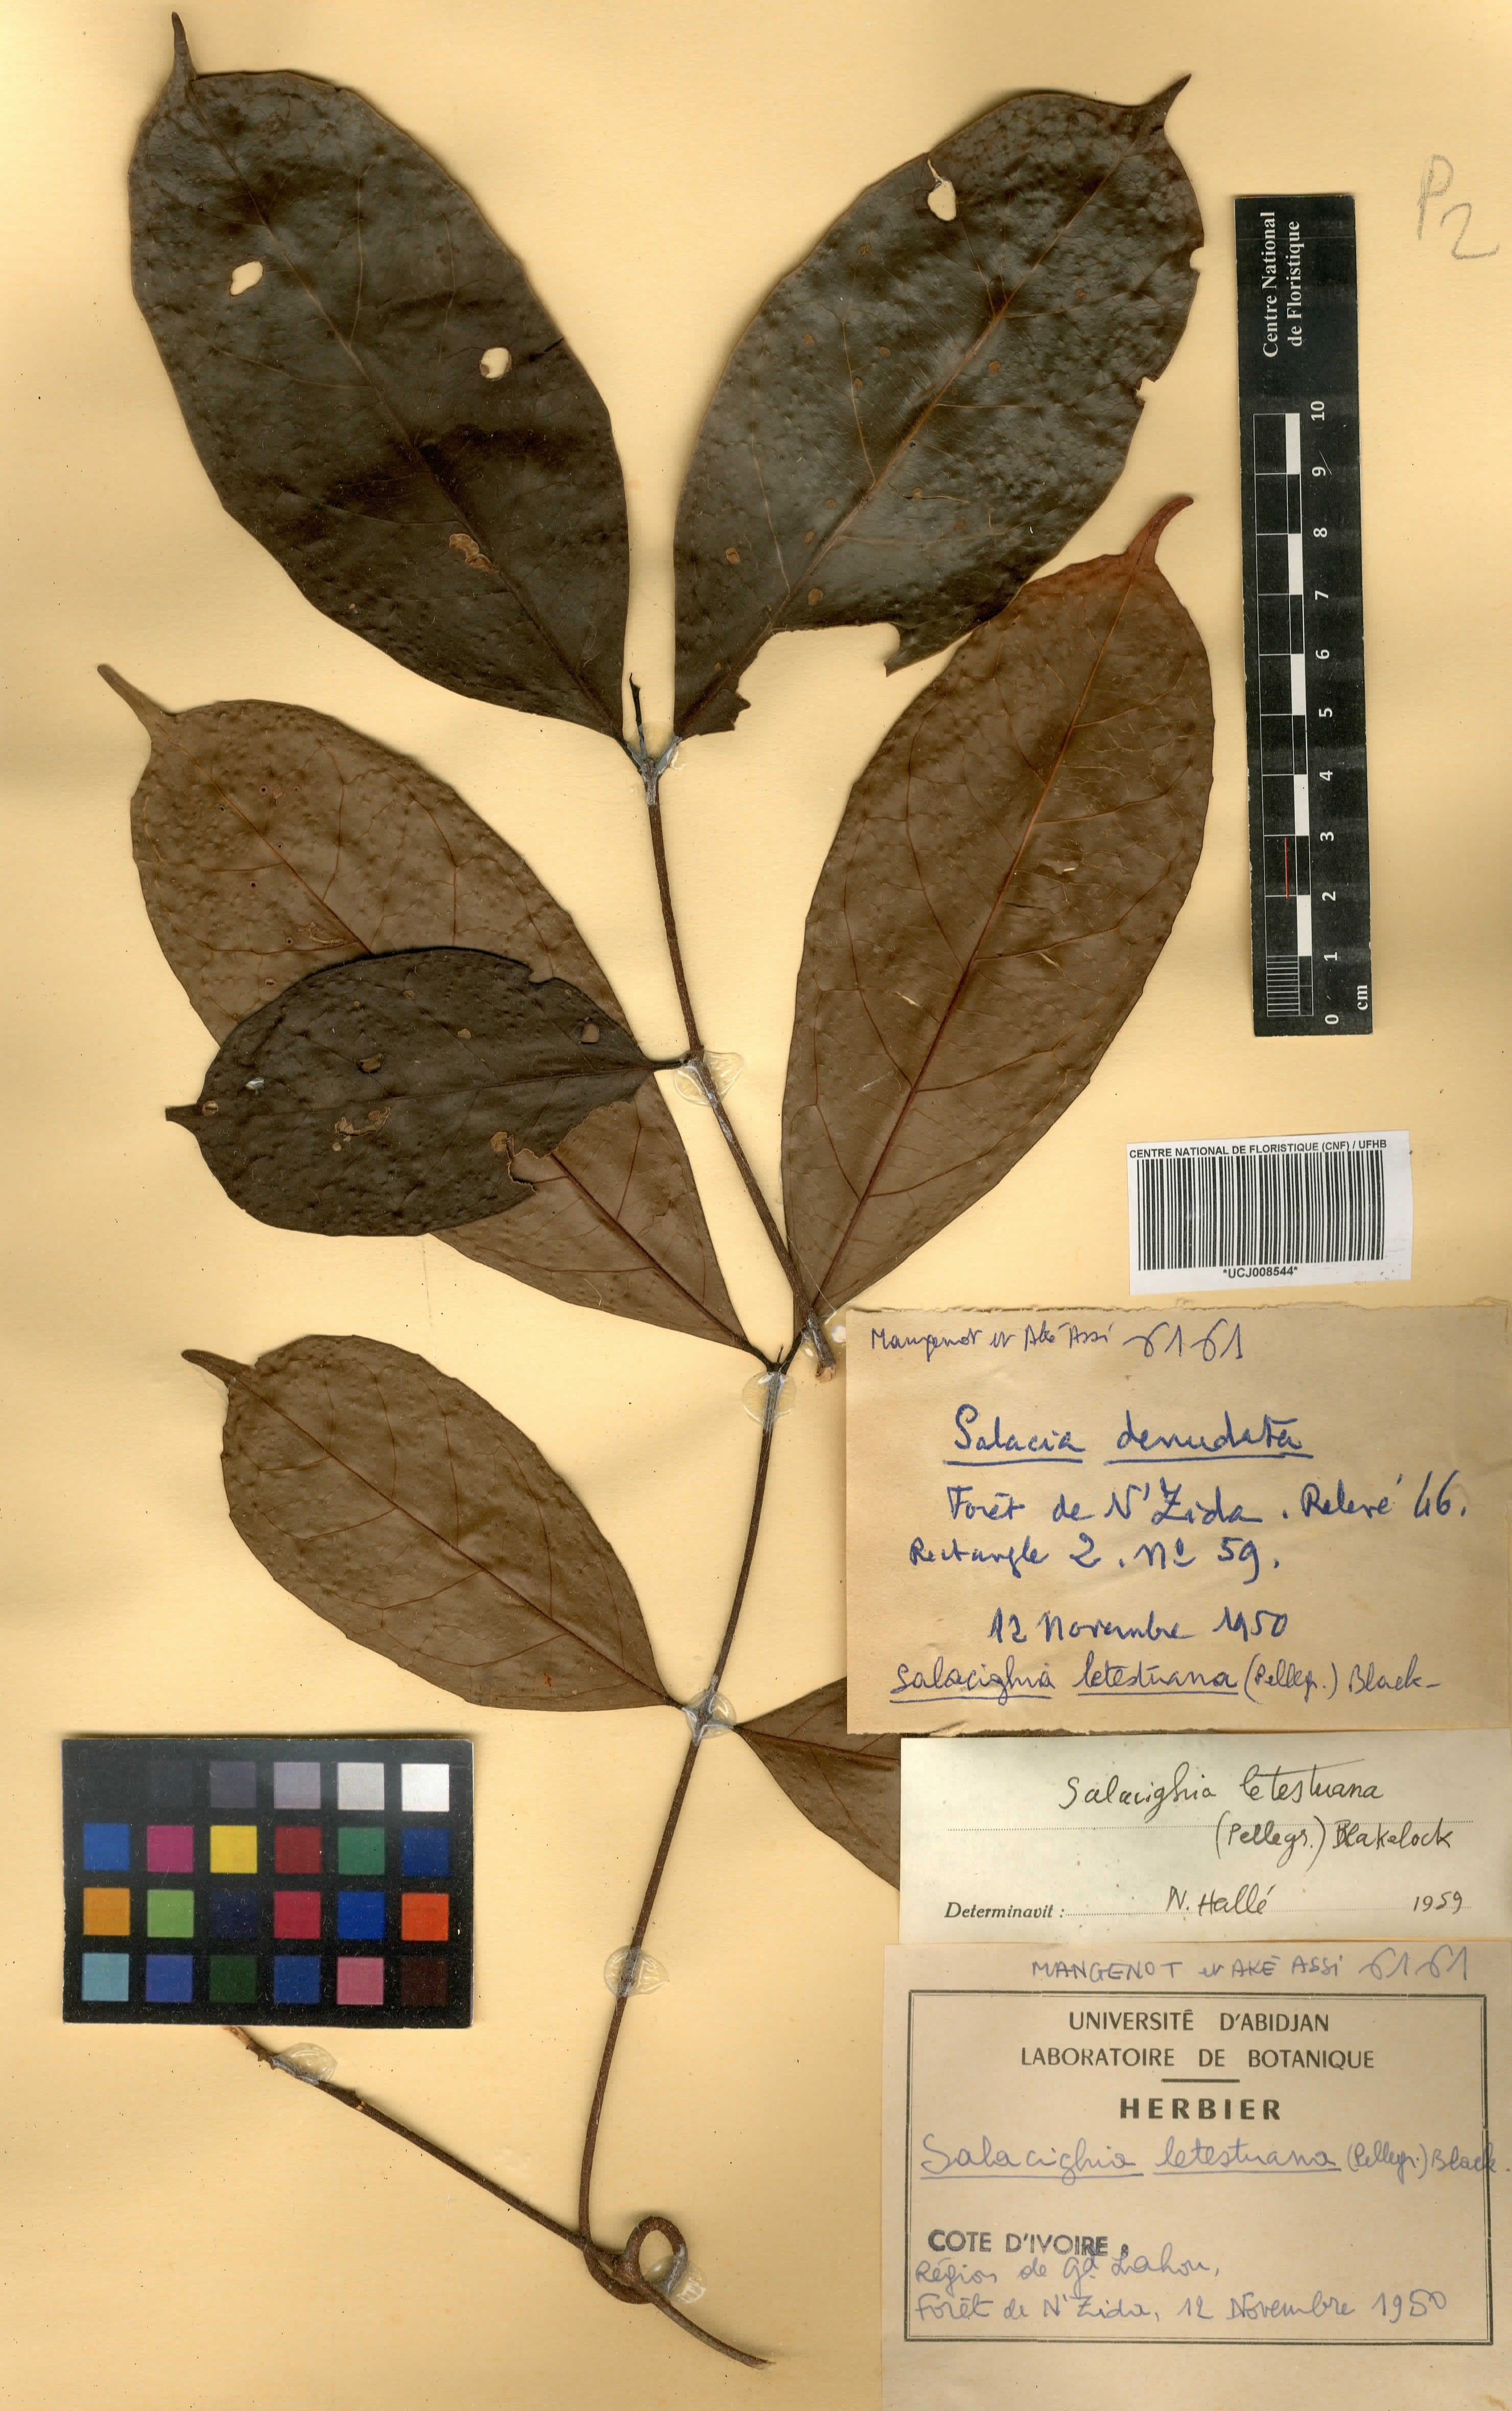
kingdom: Plantae
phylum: Tracheophyta
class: Magnoliopsida
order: Celastrales
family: Celastraceae
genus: Salacighia
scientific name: Salacighia letestuana
